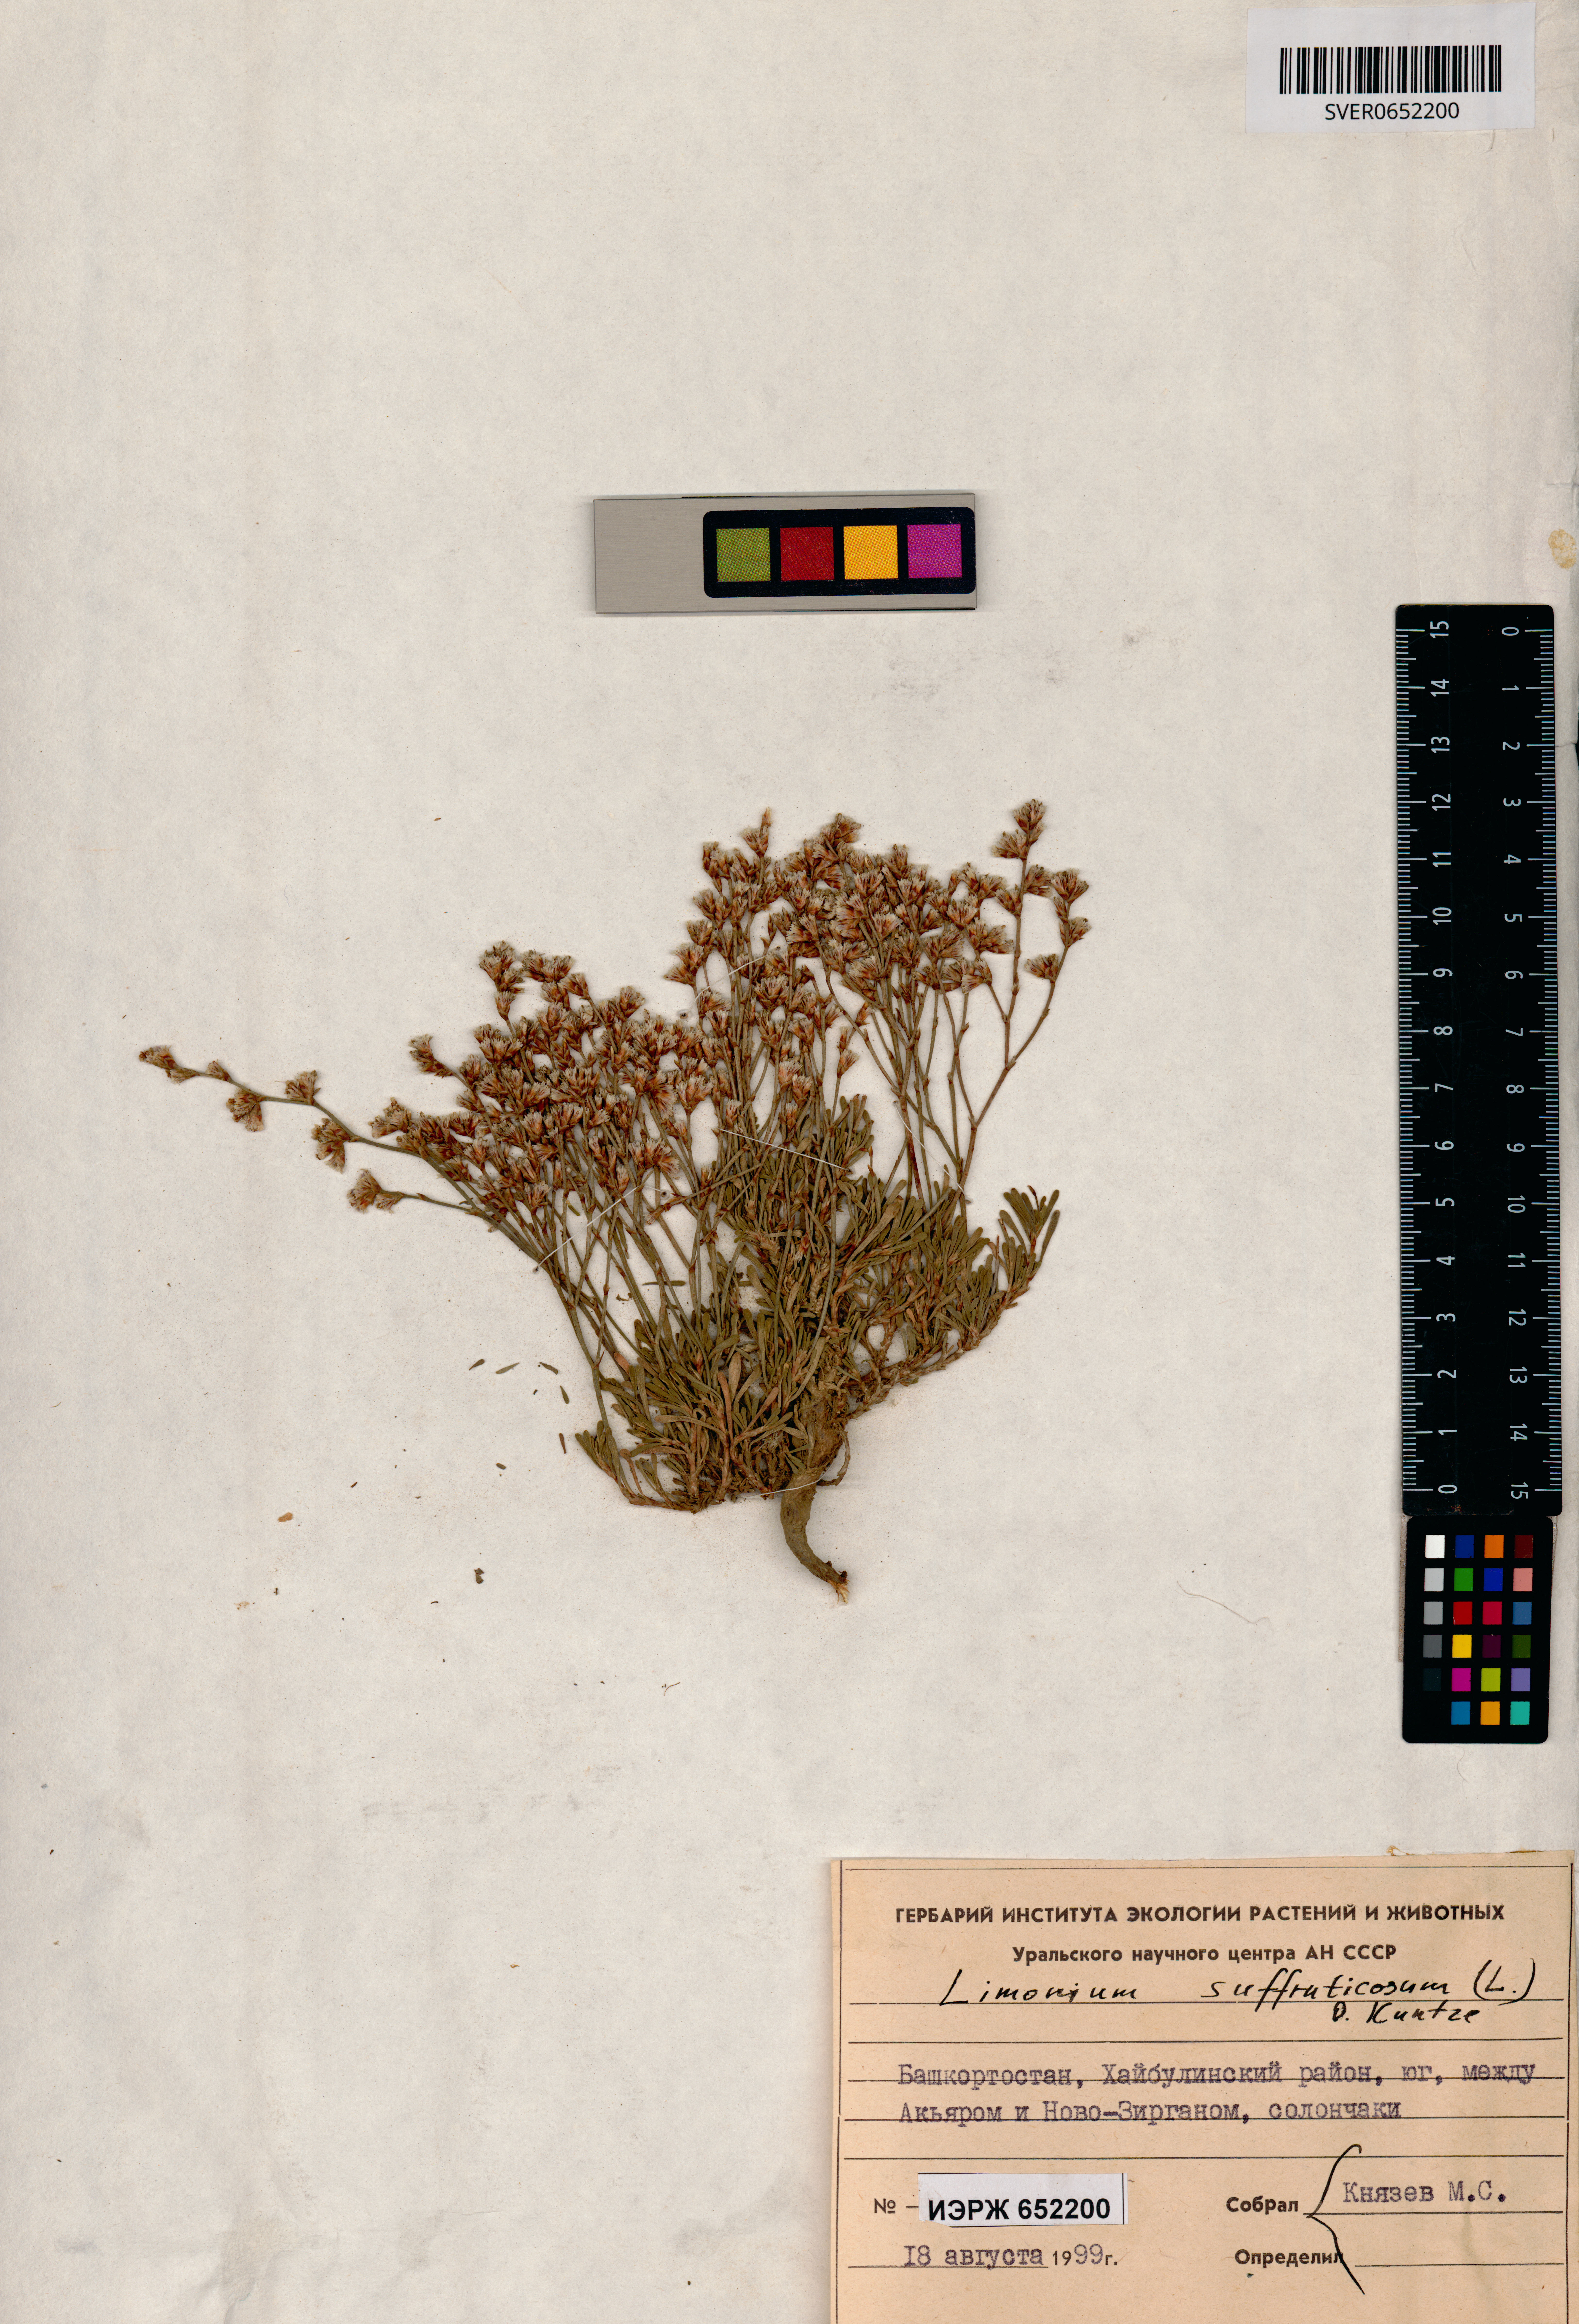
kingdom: Plantae
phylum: Tracheophyta
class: Magnoliopsida
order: Caryophyllales
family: Plumbaginaceae
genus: Limonium
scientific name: Limonium suffruticosum
